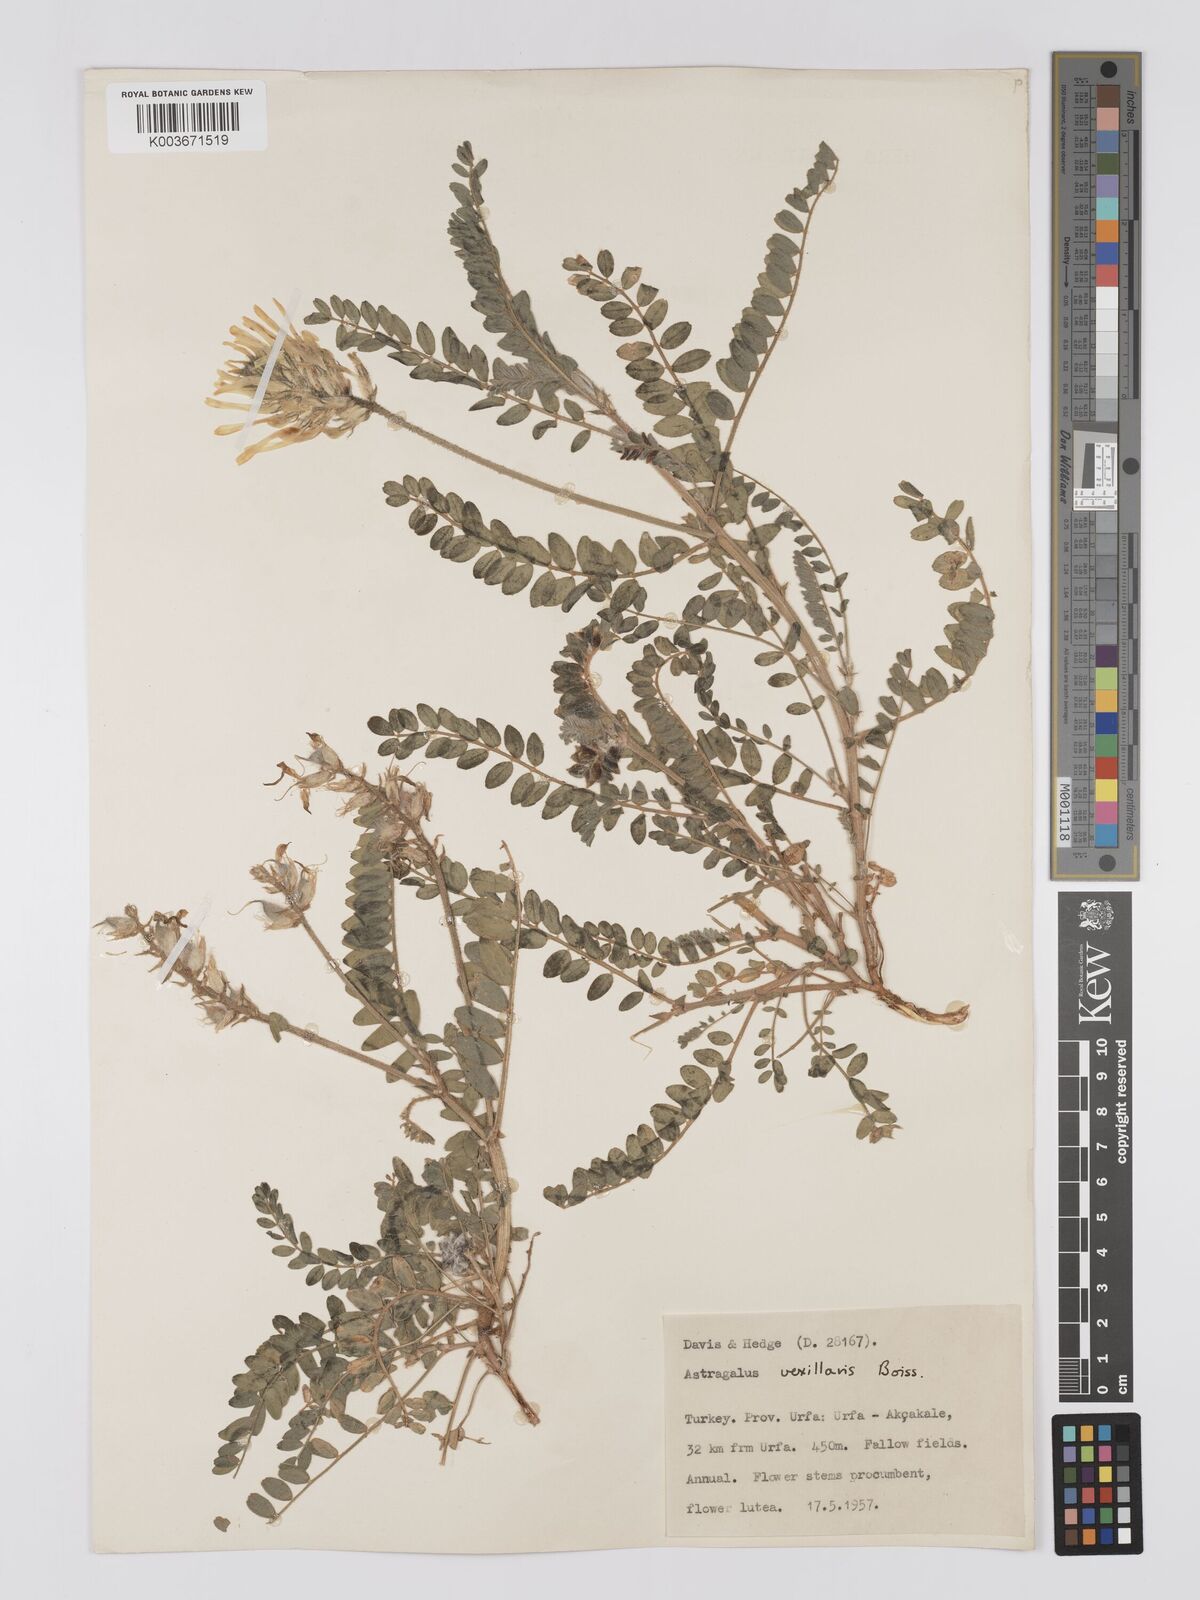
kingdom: Plantae
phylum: Tracheophyta
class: Magnoliopsida
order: Fabales
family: Fabaceae
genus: Astragalus
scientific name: Astragalus vexillaris
